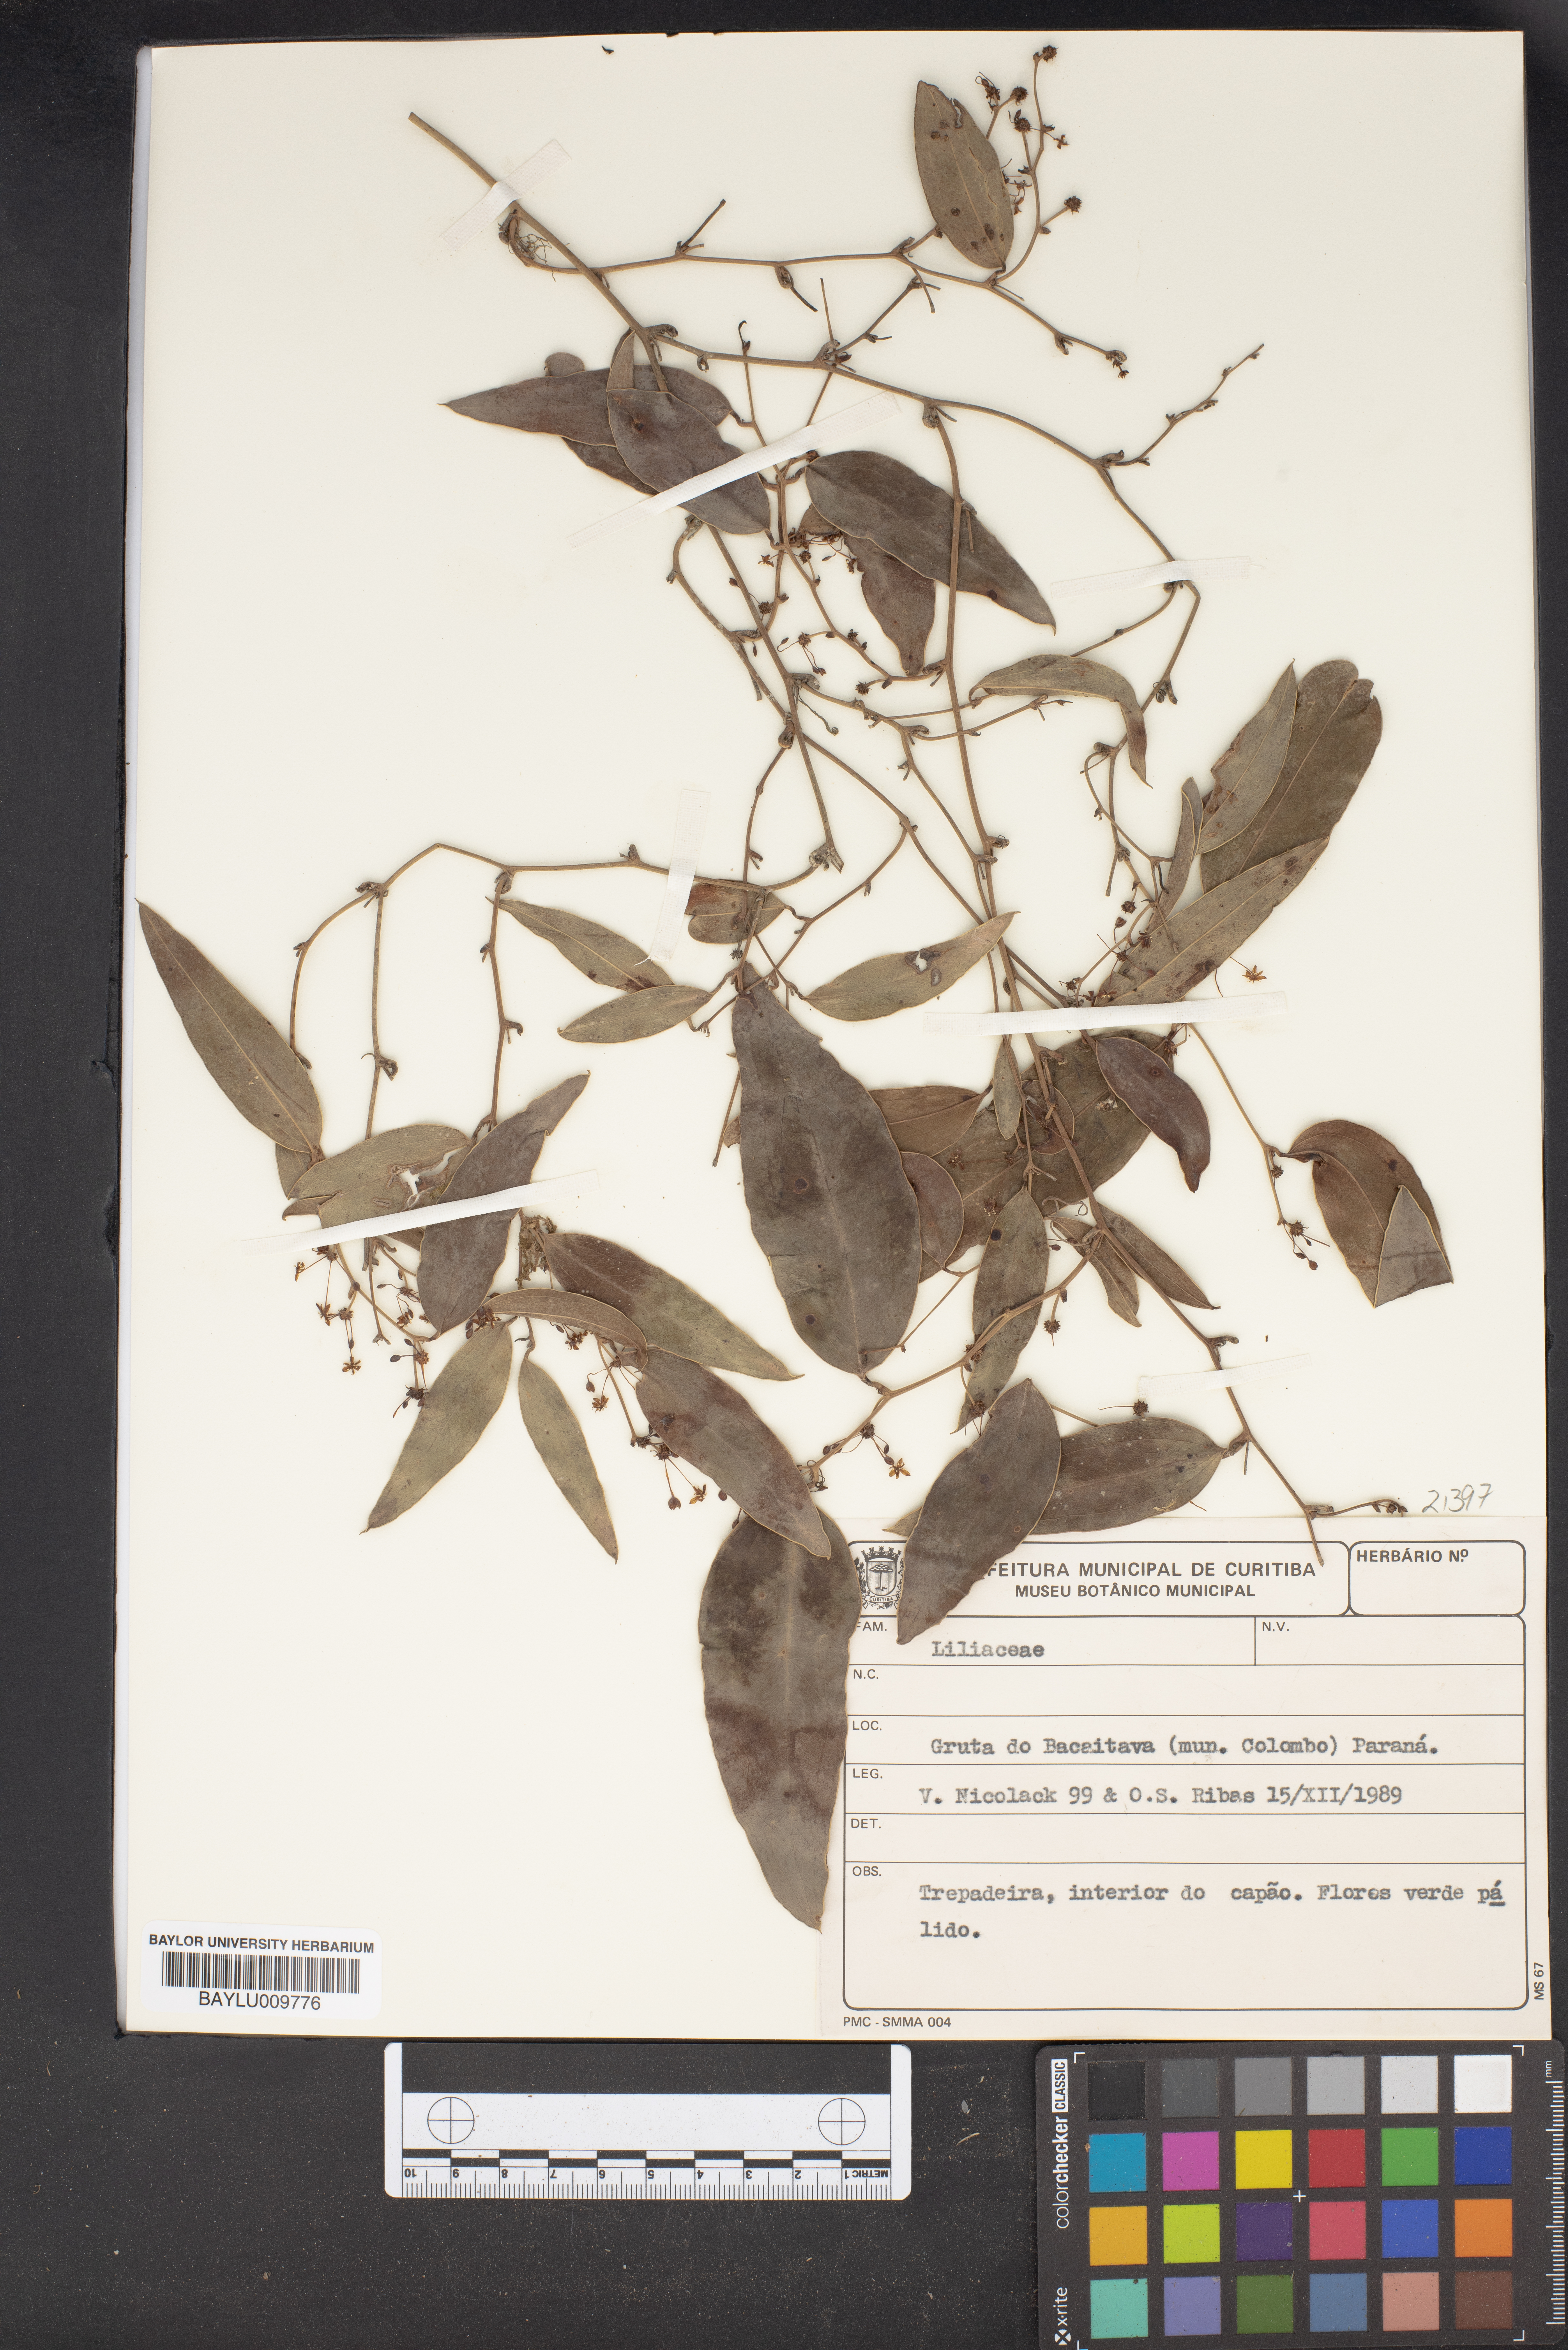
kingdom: Plantae
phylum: Tracheophyta
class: Liliopsida
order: Liliales
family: Liliaceae
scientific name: Liliaceae
